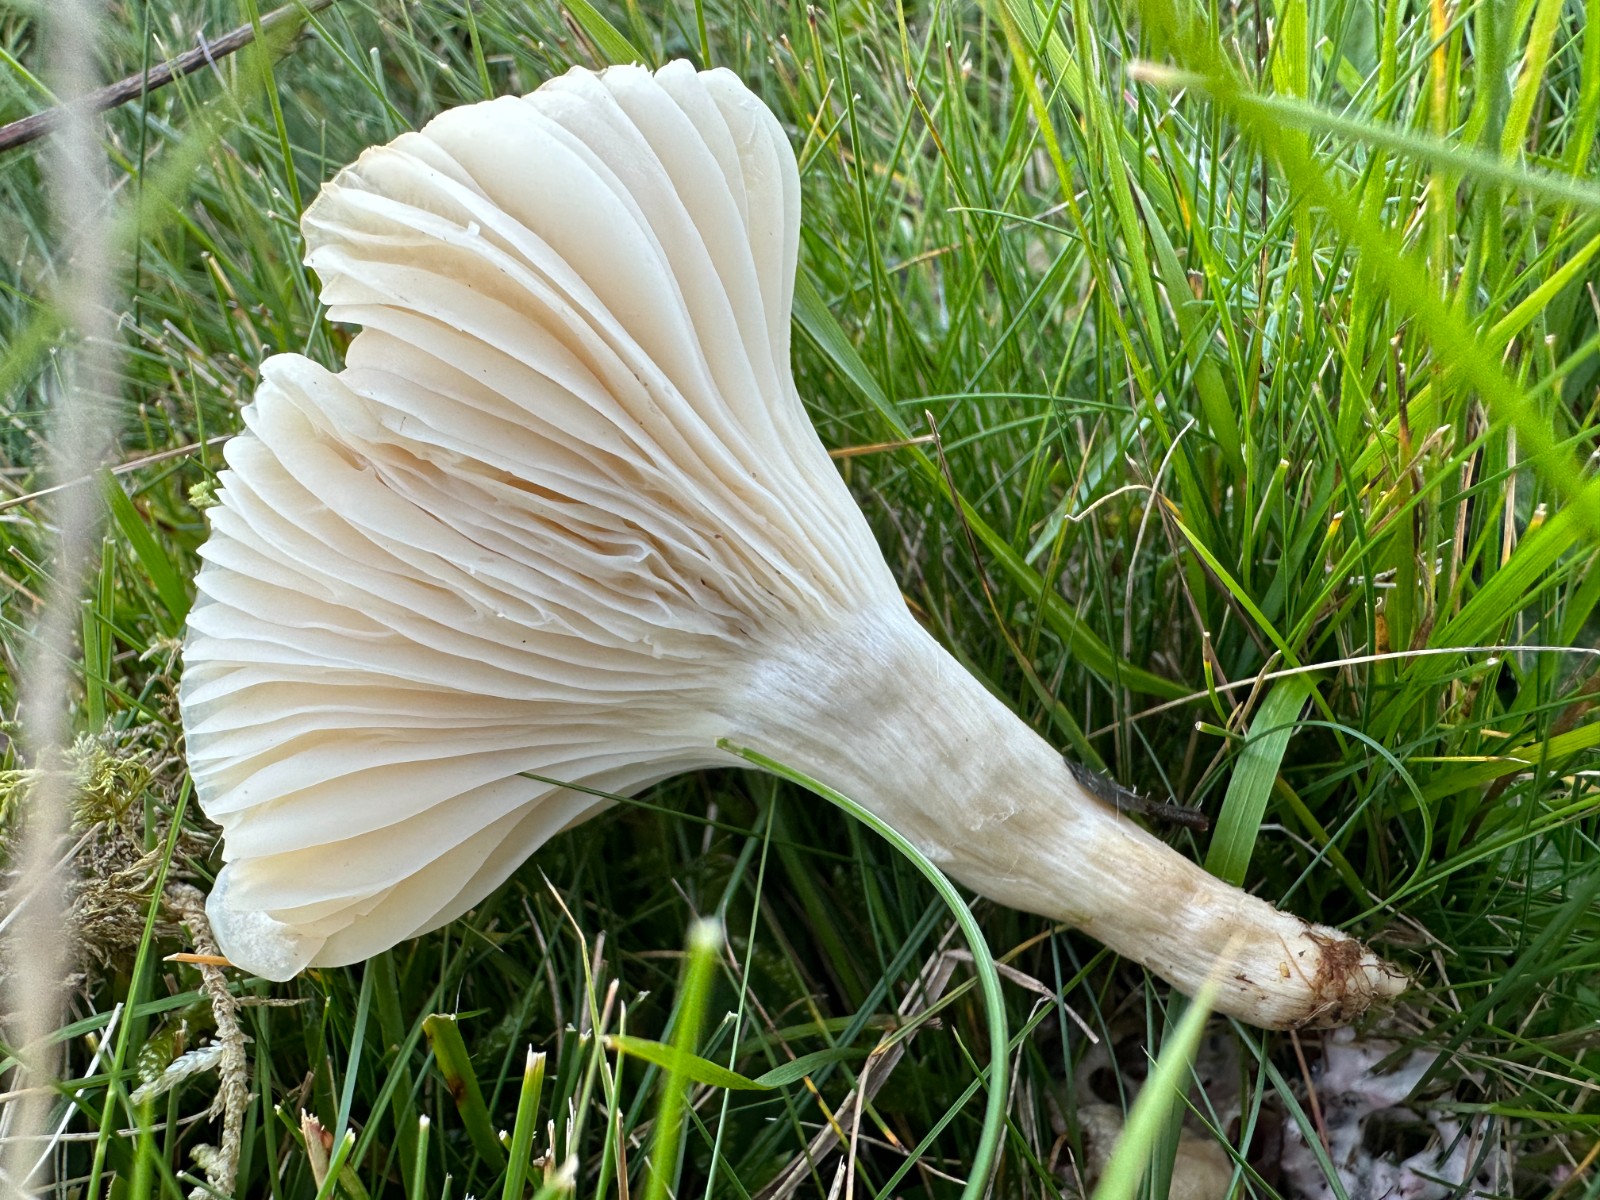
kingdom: Fungi
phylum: Basidiomycota
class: Agaricomycetes
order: Agaricales
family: Hygrophoraceae
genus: Cuphophyllus
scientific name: Cuphophyllus
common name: vokshat
